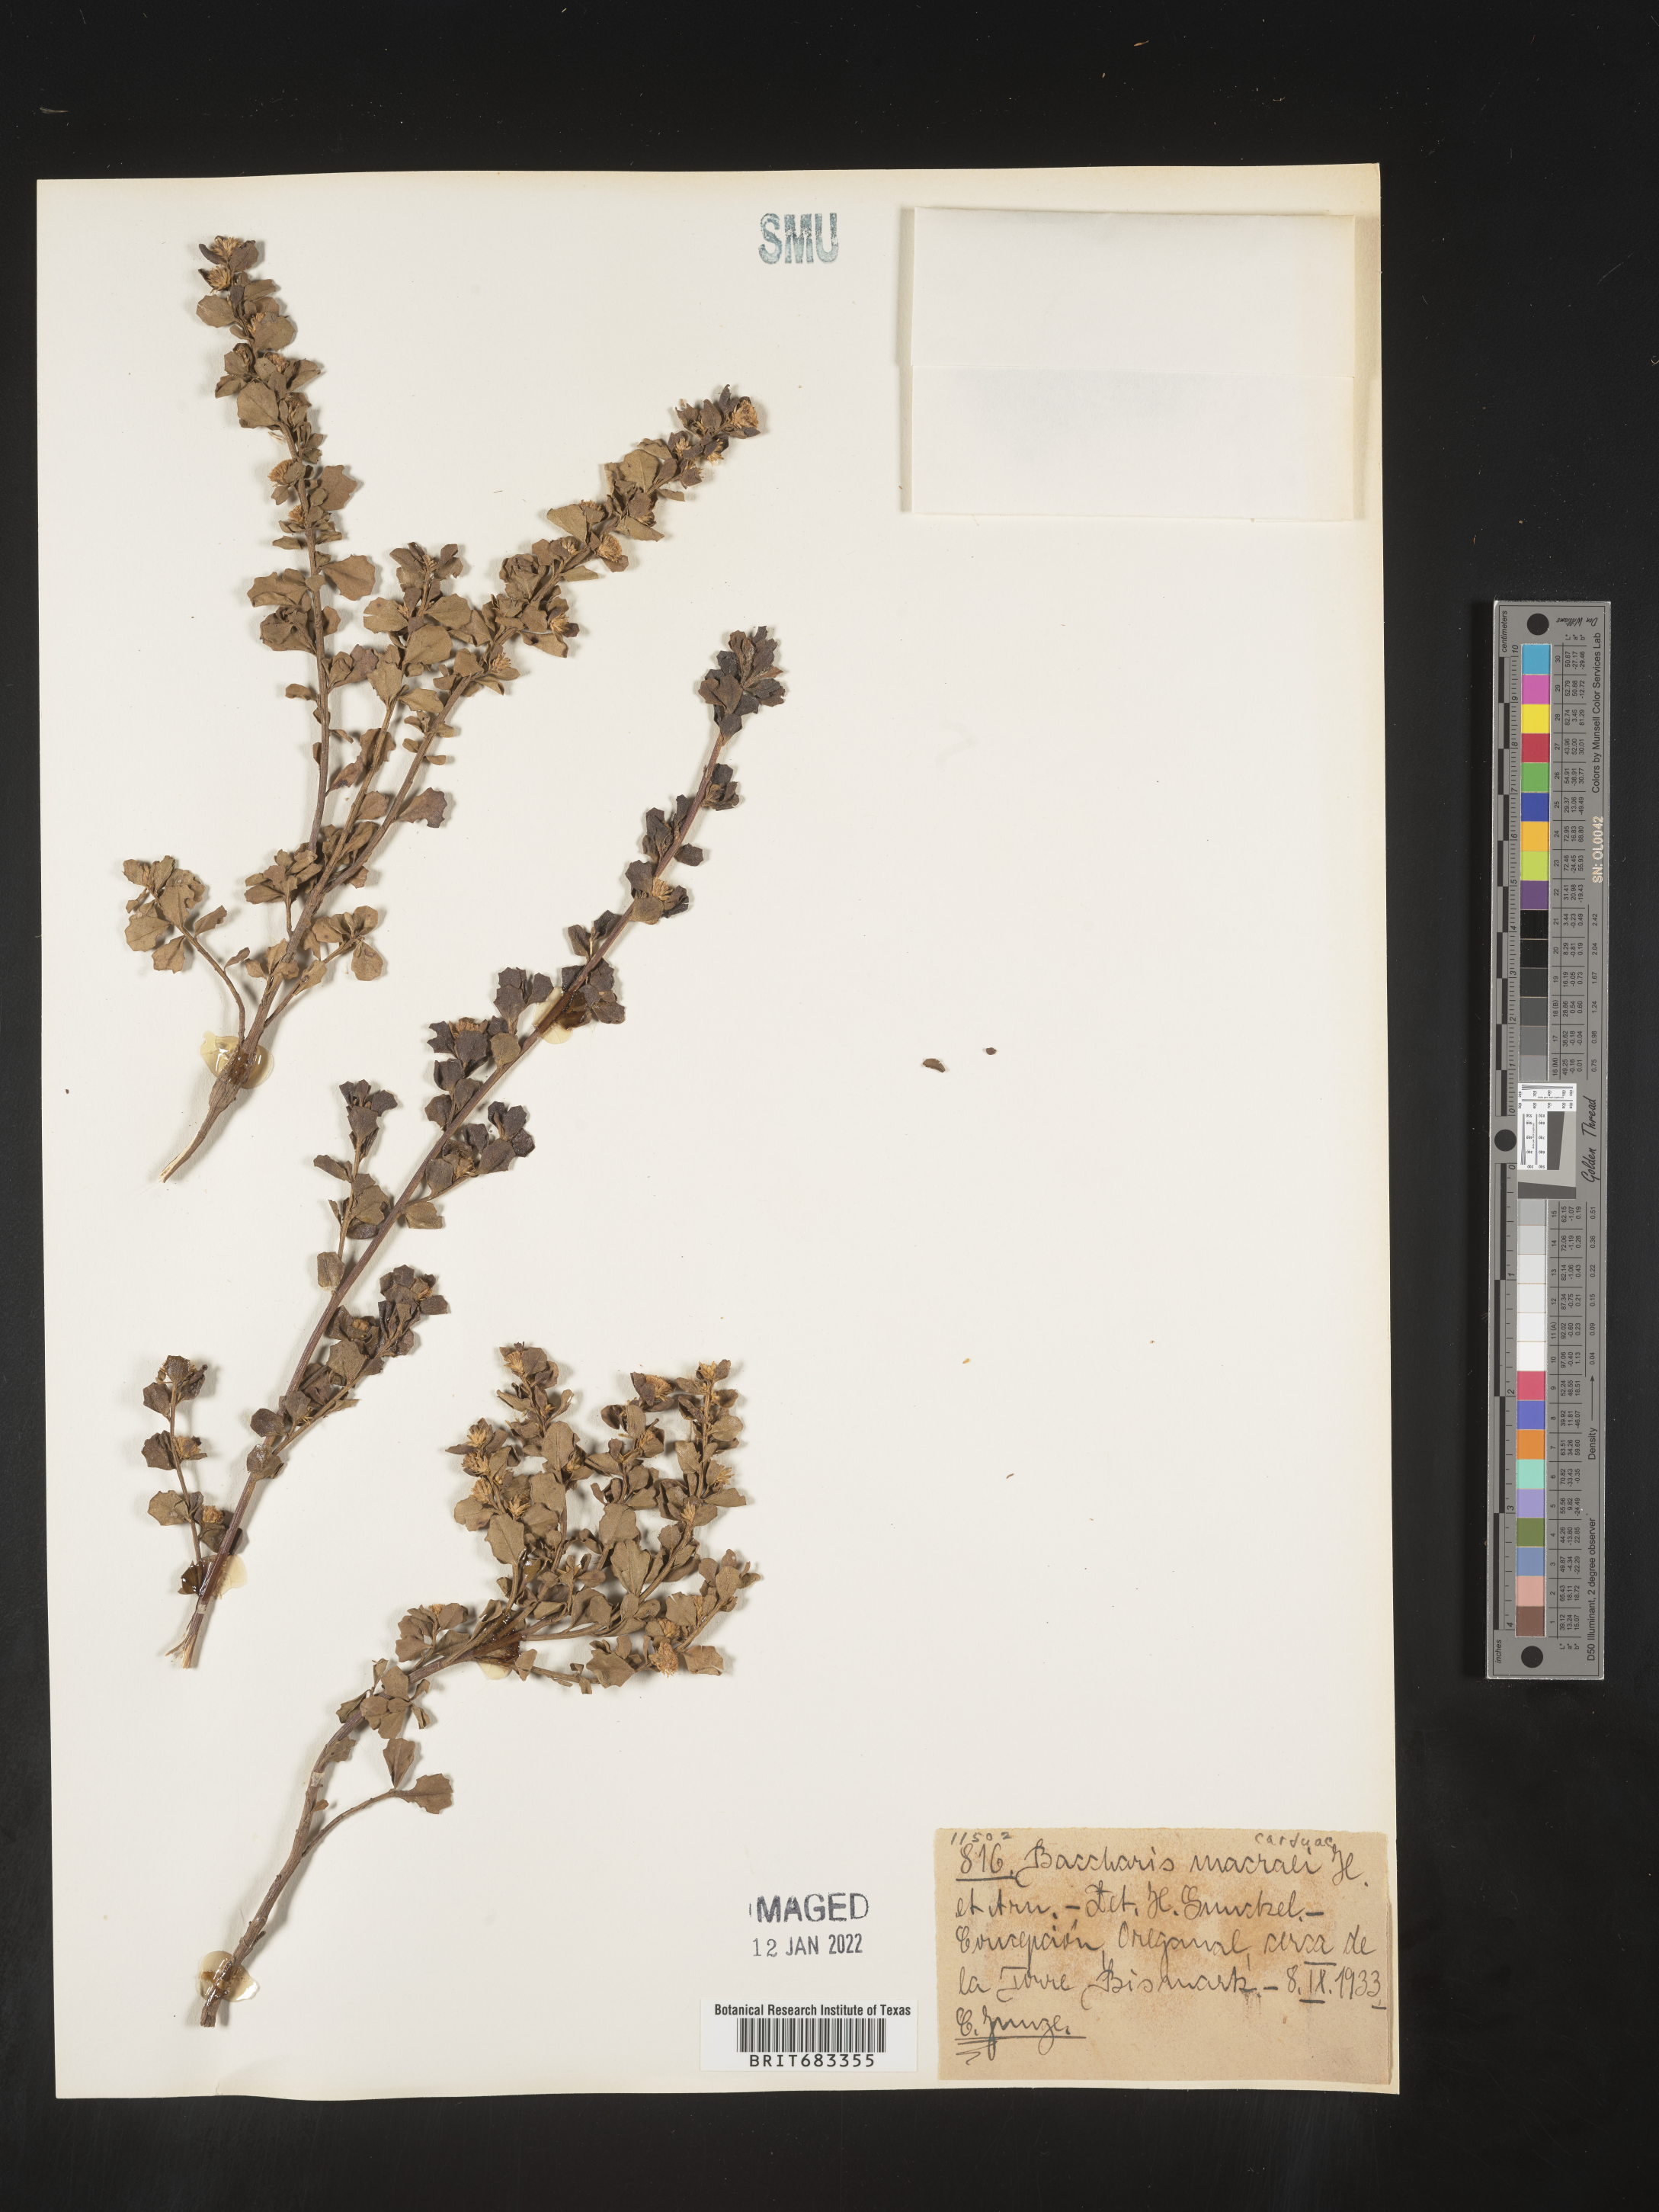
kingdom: Plantae
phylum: Tracheophyta
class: Magnoliopsida
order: Asterales
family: Asteraceae
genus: Baccharis
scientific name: Baccharis
